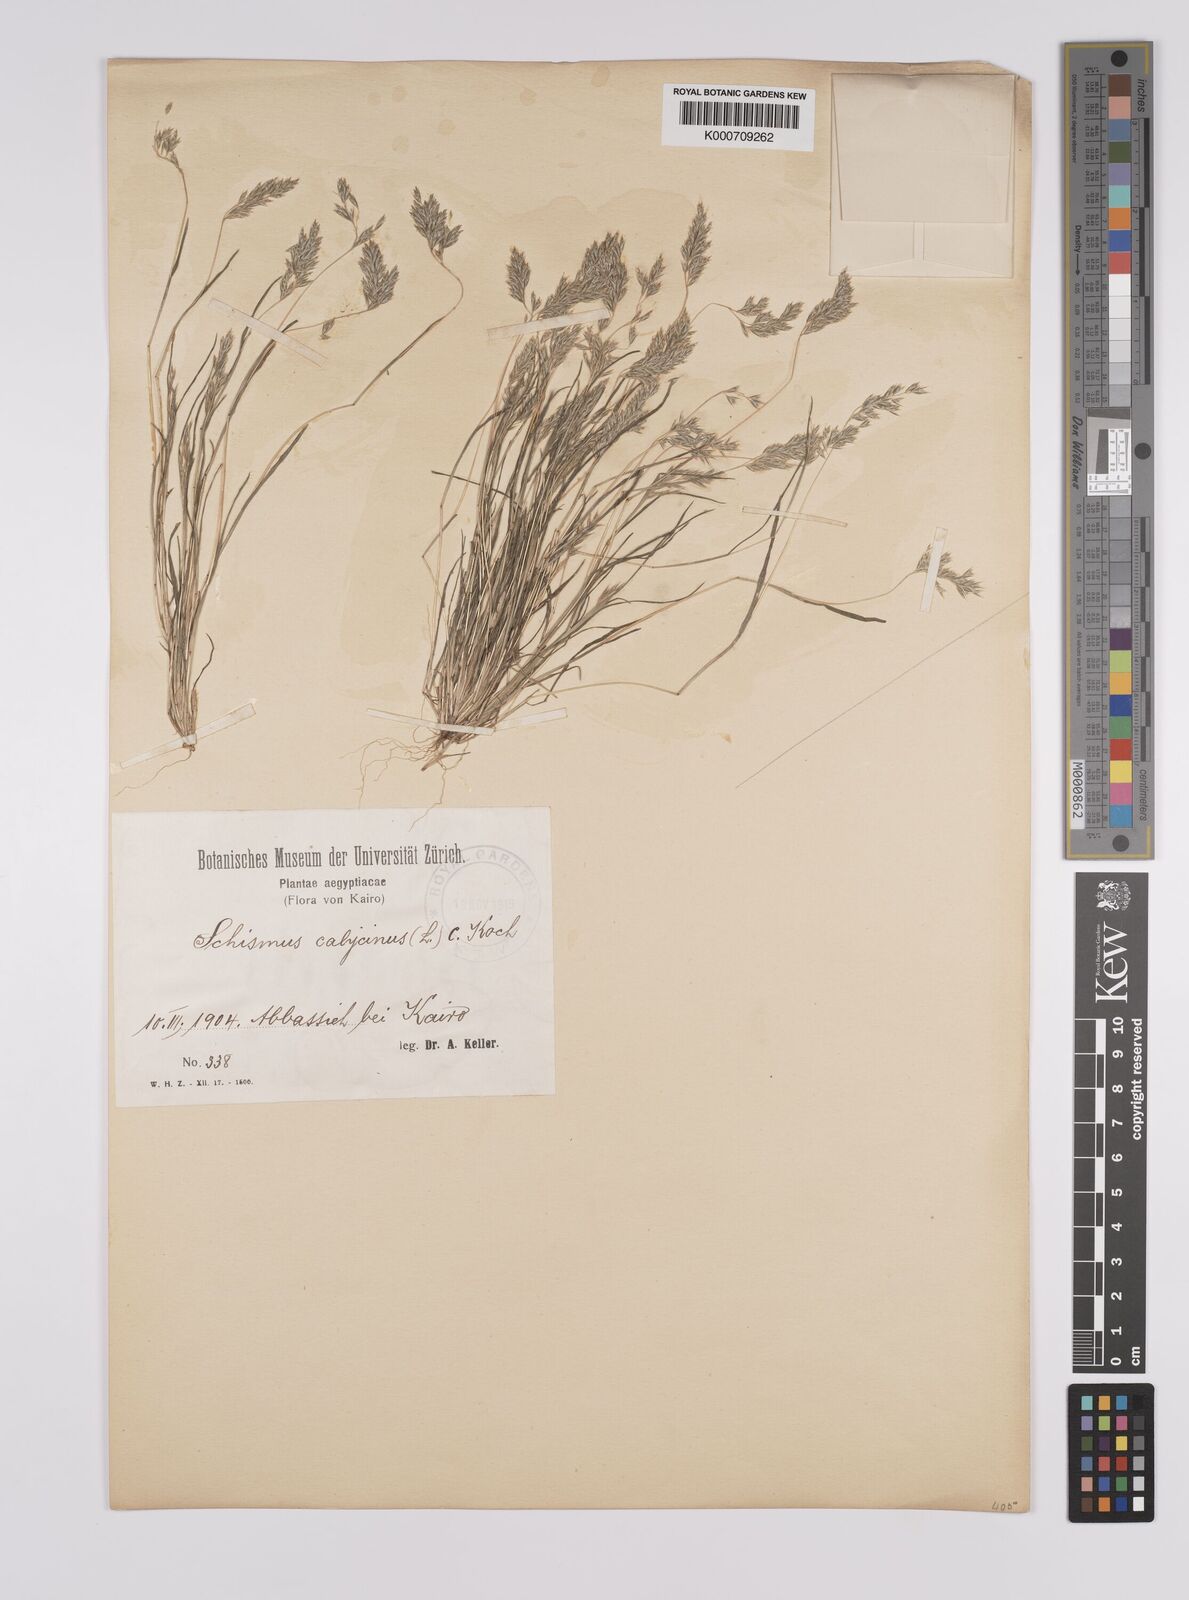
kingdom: Plantae
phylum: Tracheophyta
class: Liliopsida
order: Poales
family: Poaceae
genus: Schismus
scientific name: Schismus barbatus
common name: Kelch-grass
